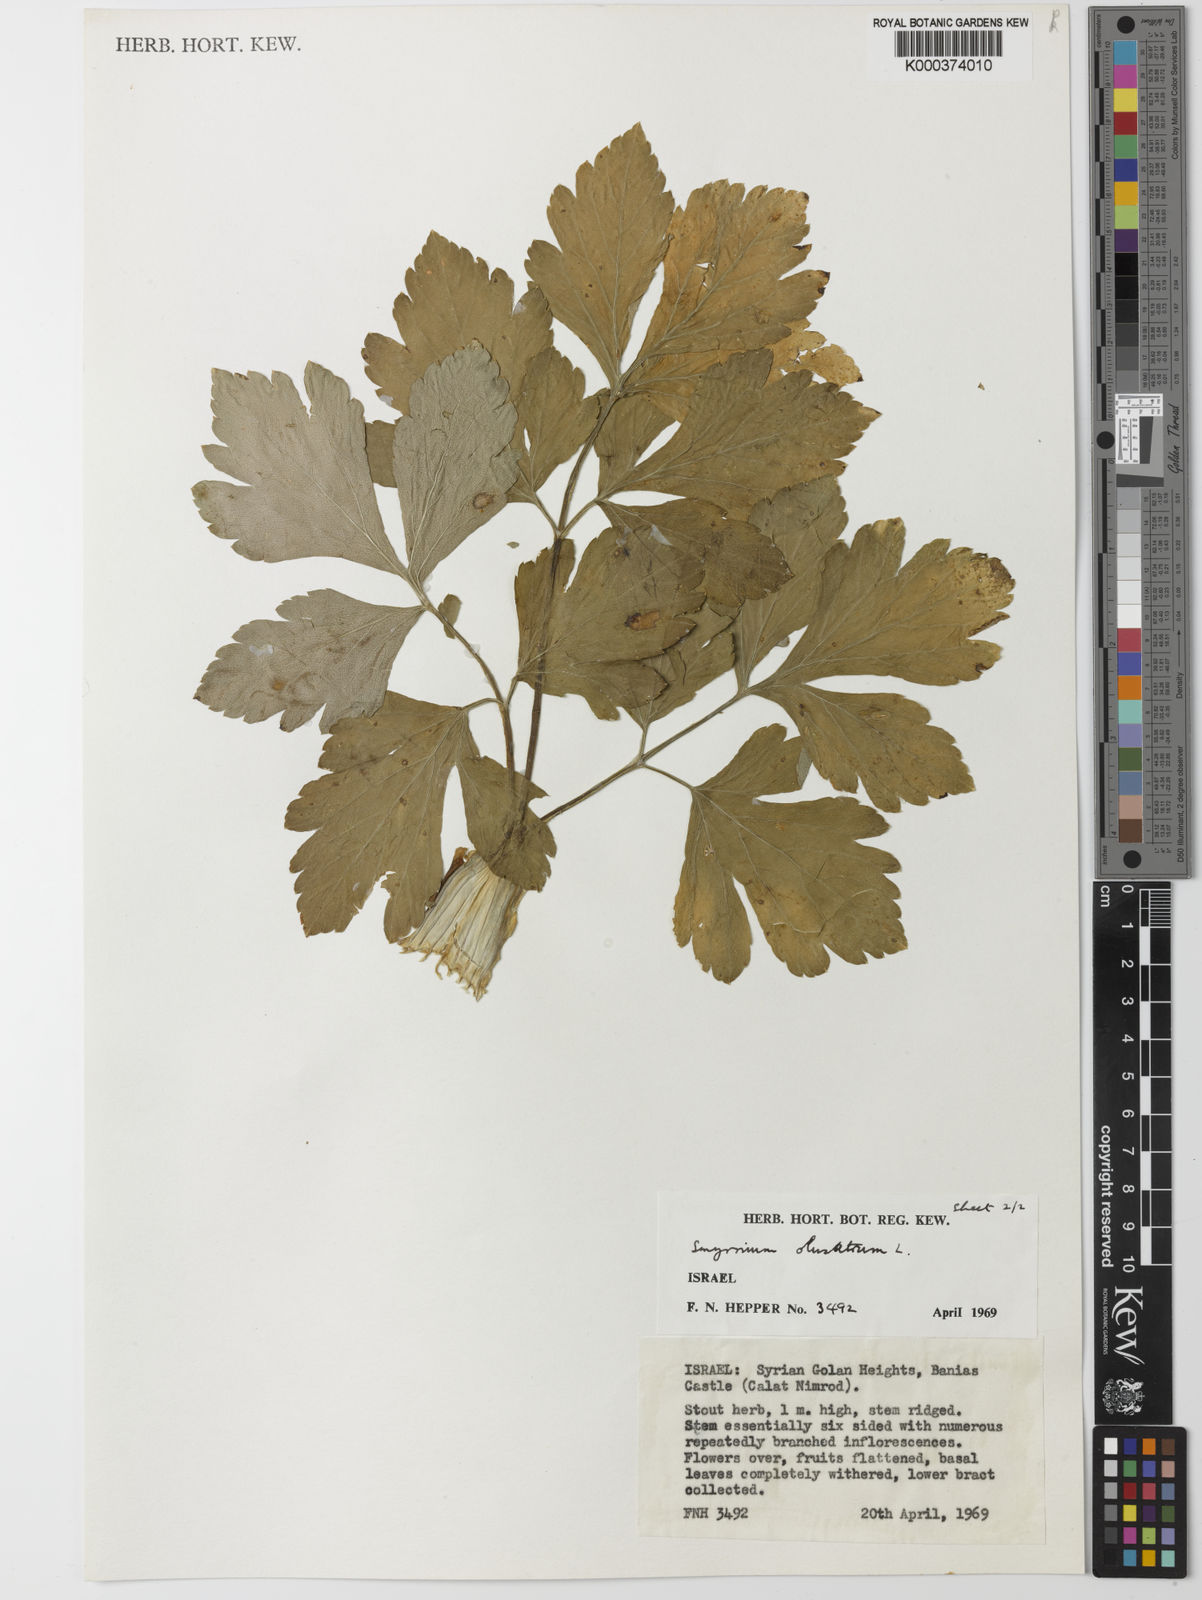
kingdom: Plantae
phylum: Tracheophyta
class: Magnoliopsida
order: Apiales
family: Apiaceae
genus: Smyrnium
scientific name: Smyrnium olusatrum
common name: Alexanders
